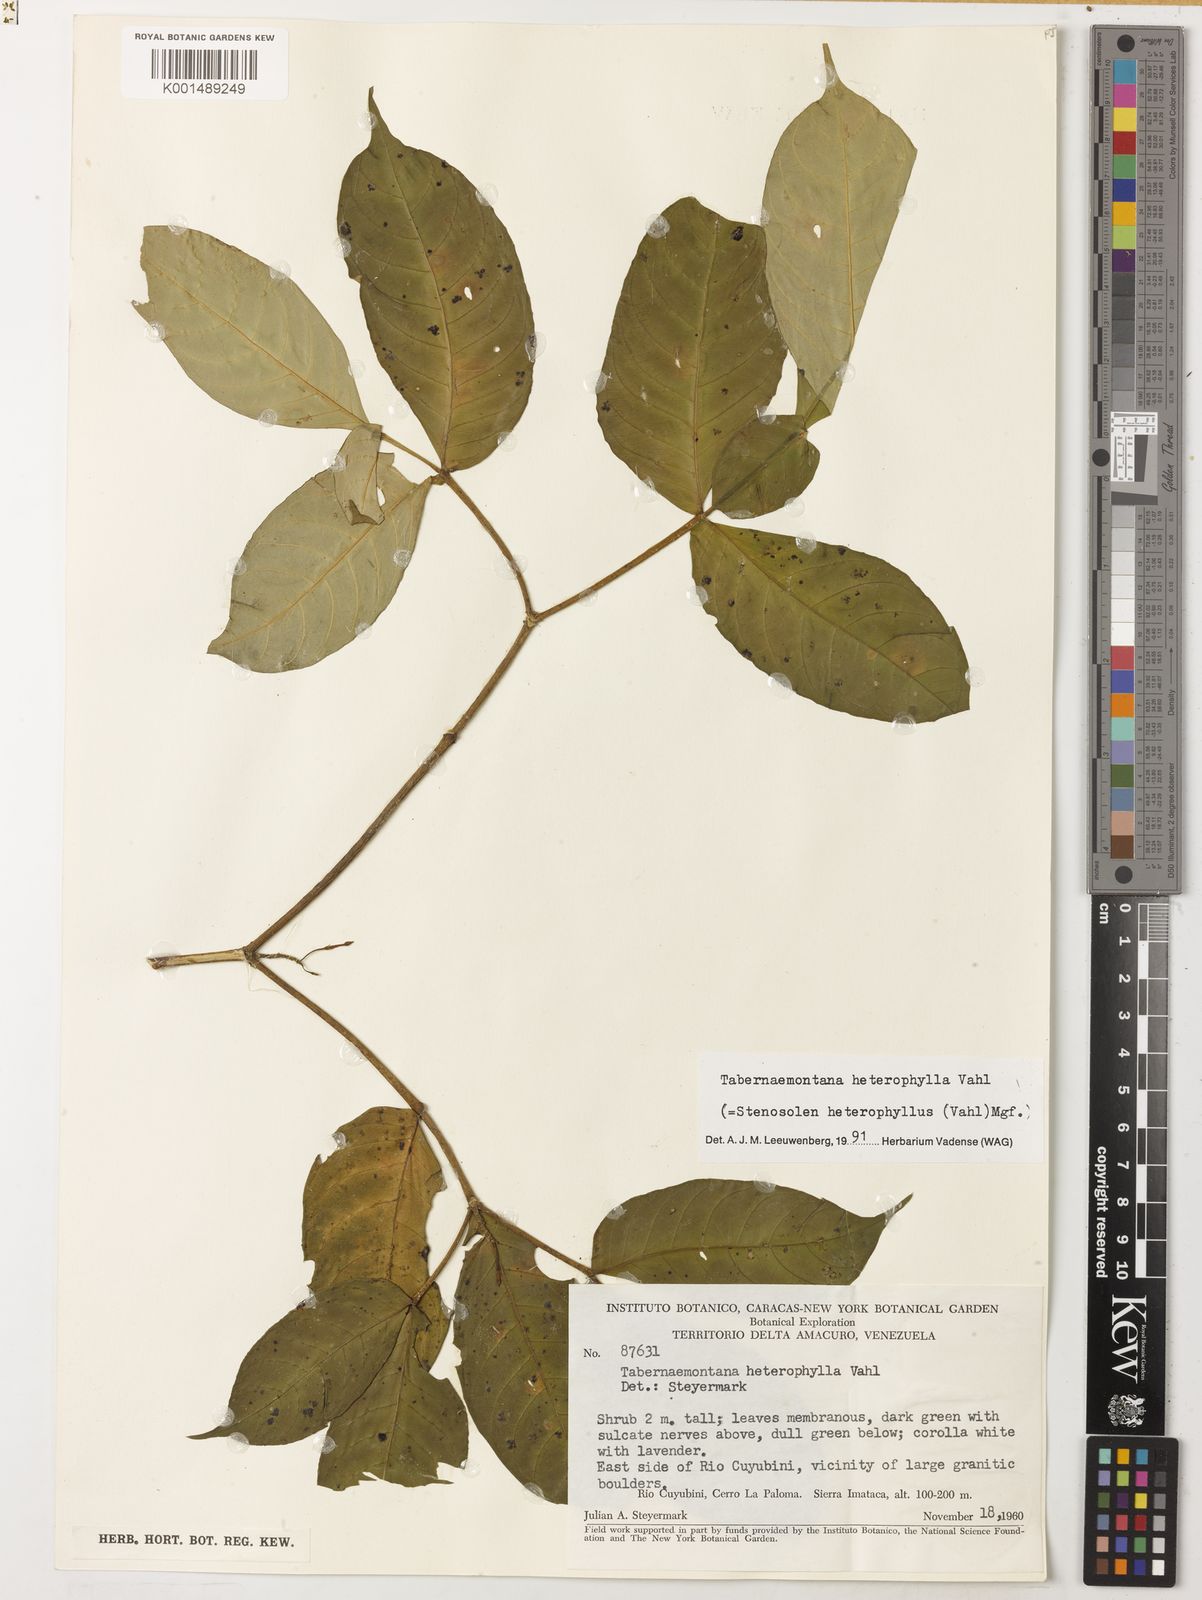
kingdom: Plantae
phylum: Tracheophyta
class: Magnoliopsida
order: Gentianales
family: Apocynaceae
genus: Tabernaemontana
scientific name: Tabernaemontana heterophylla
